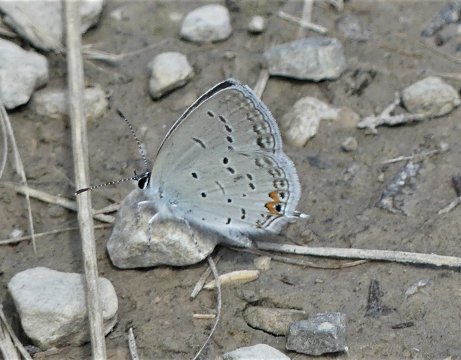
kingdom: Animalia
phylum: Arthropoda
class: Insecta
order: Lepidoptera
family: Lycaenidae
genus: Elkalyce
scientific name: Elkalyce comyntas
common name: Eastern Tailed-Blue
